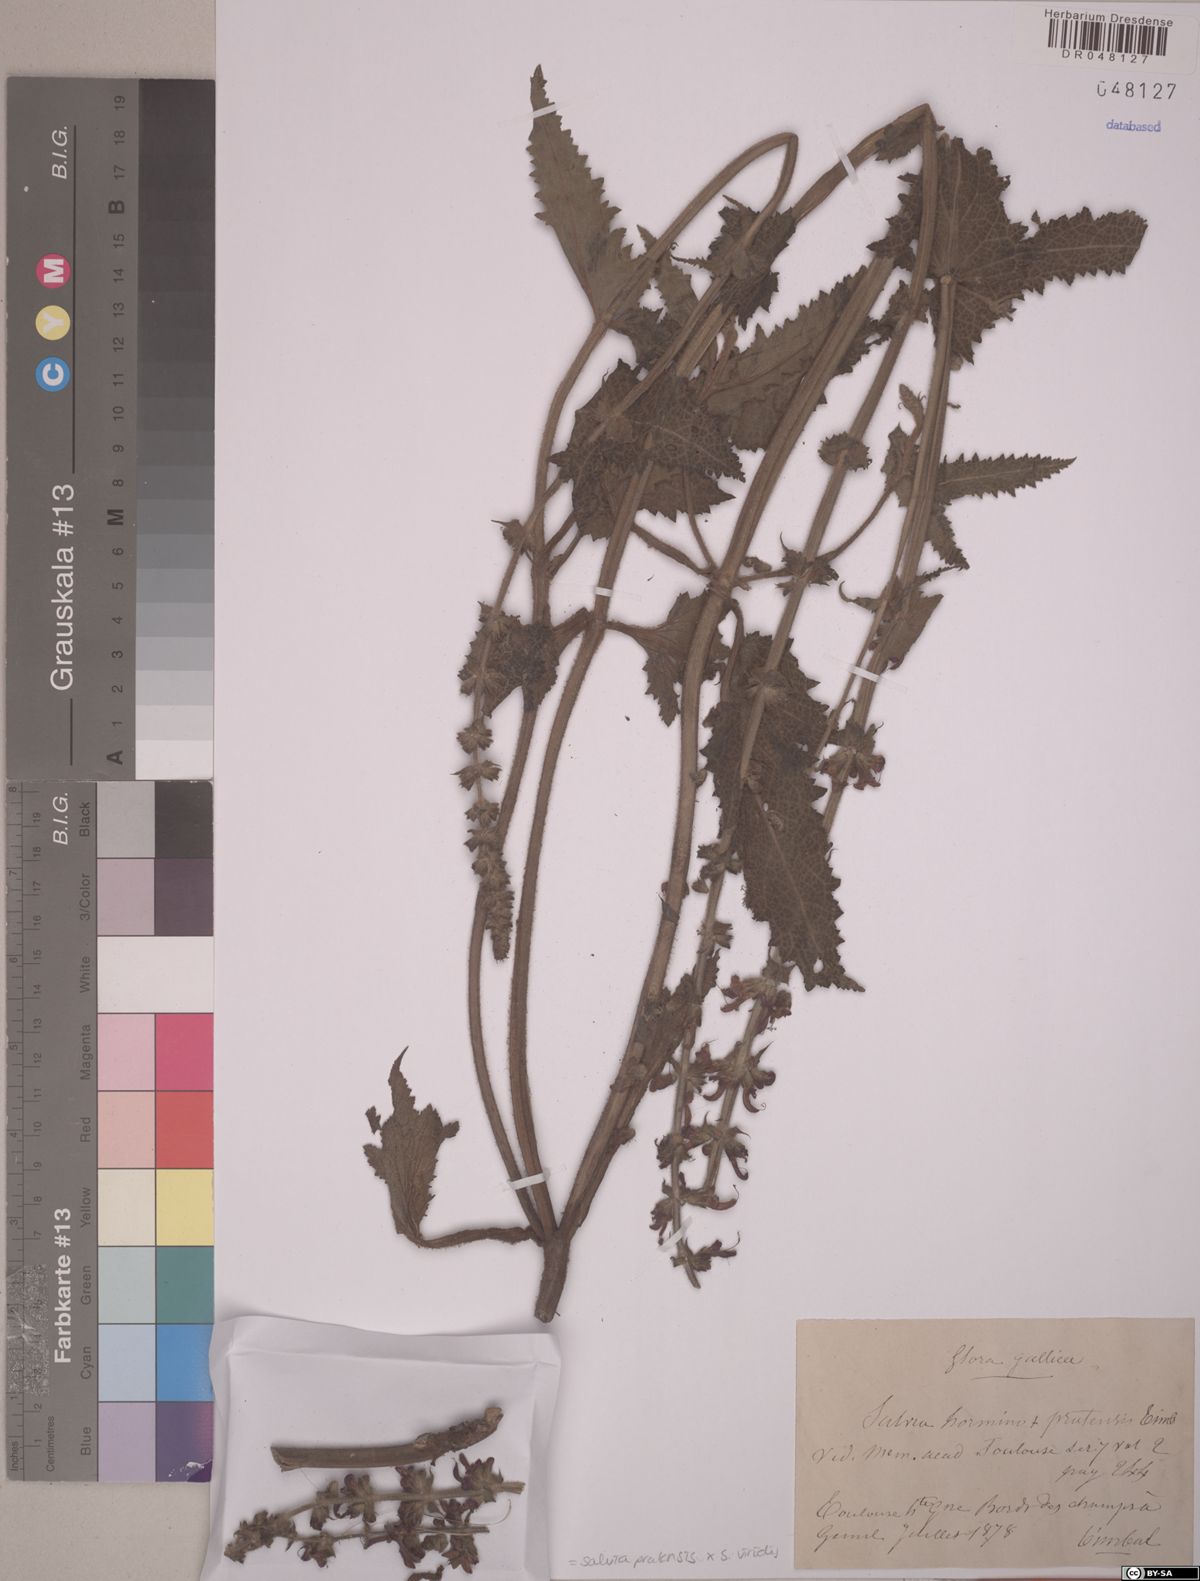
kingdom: Plantae
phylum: Tracheophyta
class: Magnoliopsida
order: Lamiales
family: Lamiaceae
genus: Salvia
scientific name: Salvia viridis
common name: Annual clary
